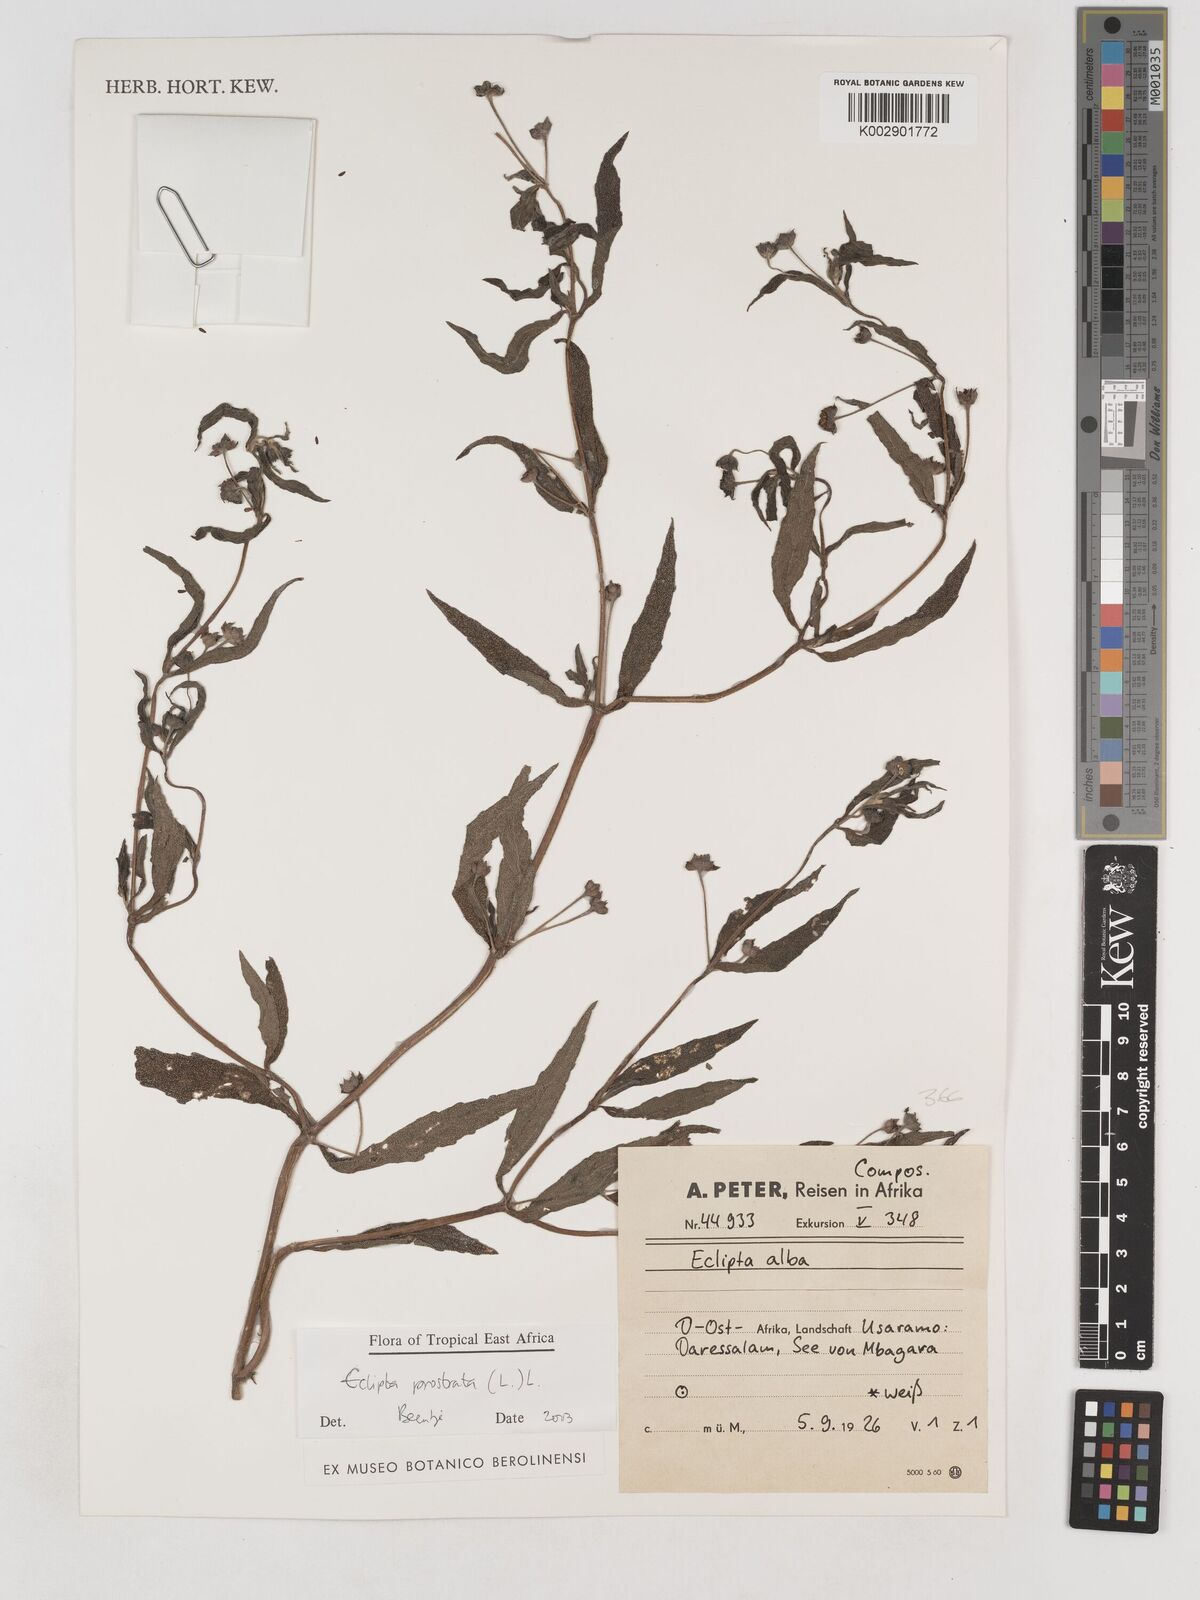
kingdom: Plantae
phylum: Tracheophyta
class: Magnoliopsida
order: Asterales
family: Asteraceae
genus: Eclipta
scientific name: Eclipta alba
